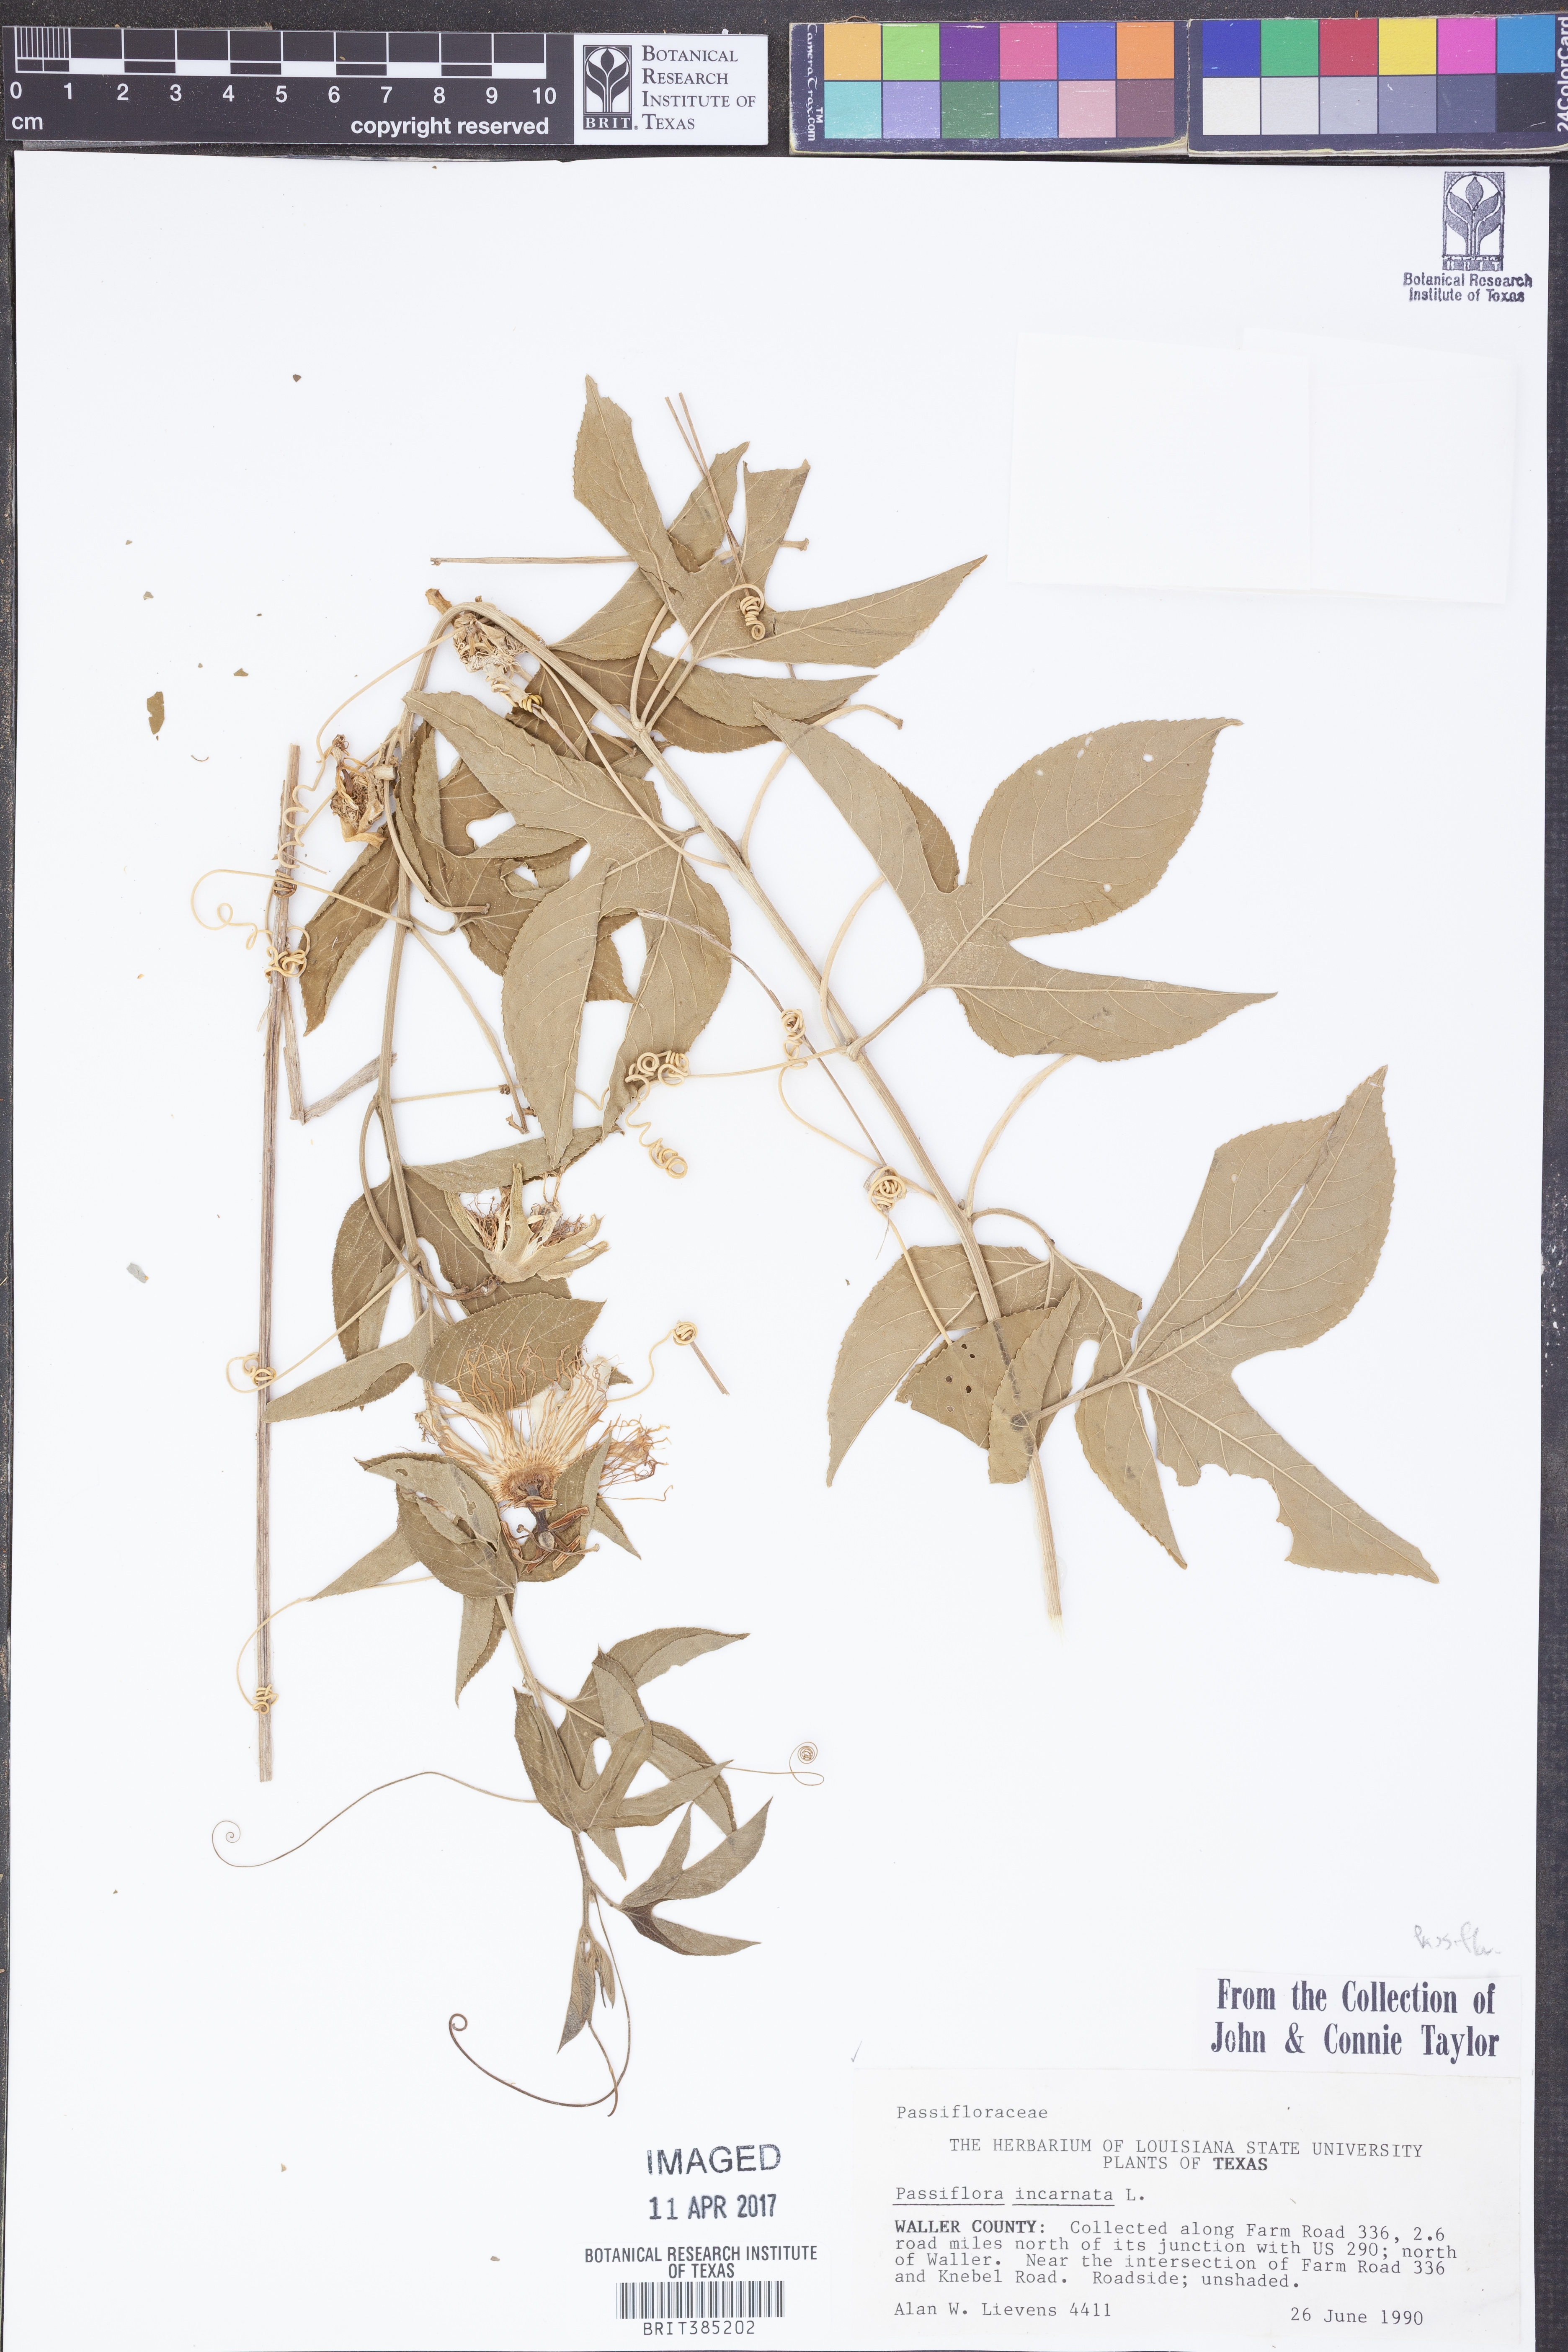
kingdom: Plantae
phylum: Tracheophyta
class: Magnoliopsida
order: Malpighiales
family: Passifloraceae
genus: Passiflora
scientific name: Passiflora incarnata
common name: Apricot-vine
